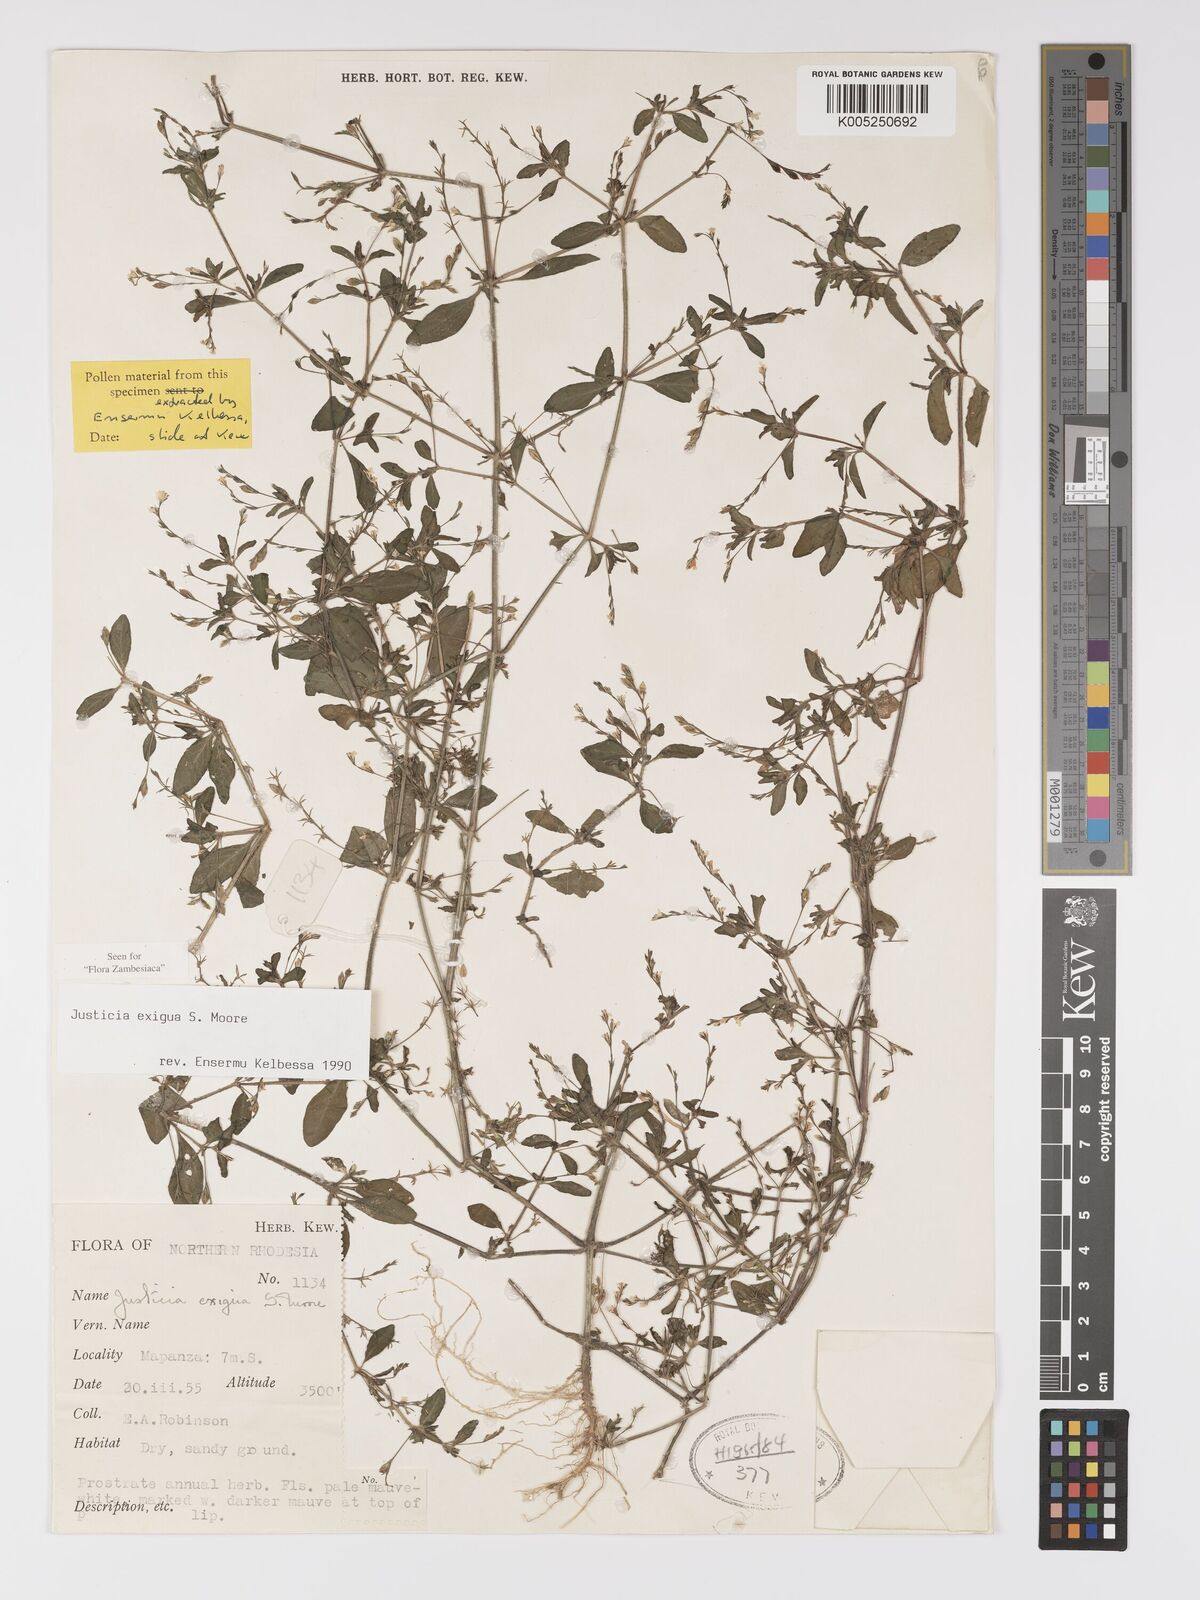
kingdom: Plantae
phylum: Tracheophyta
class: Magnoliopsida
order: Lamiales
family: Acanthaceae
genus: Justicia
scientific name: Justicia exigua
